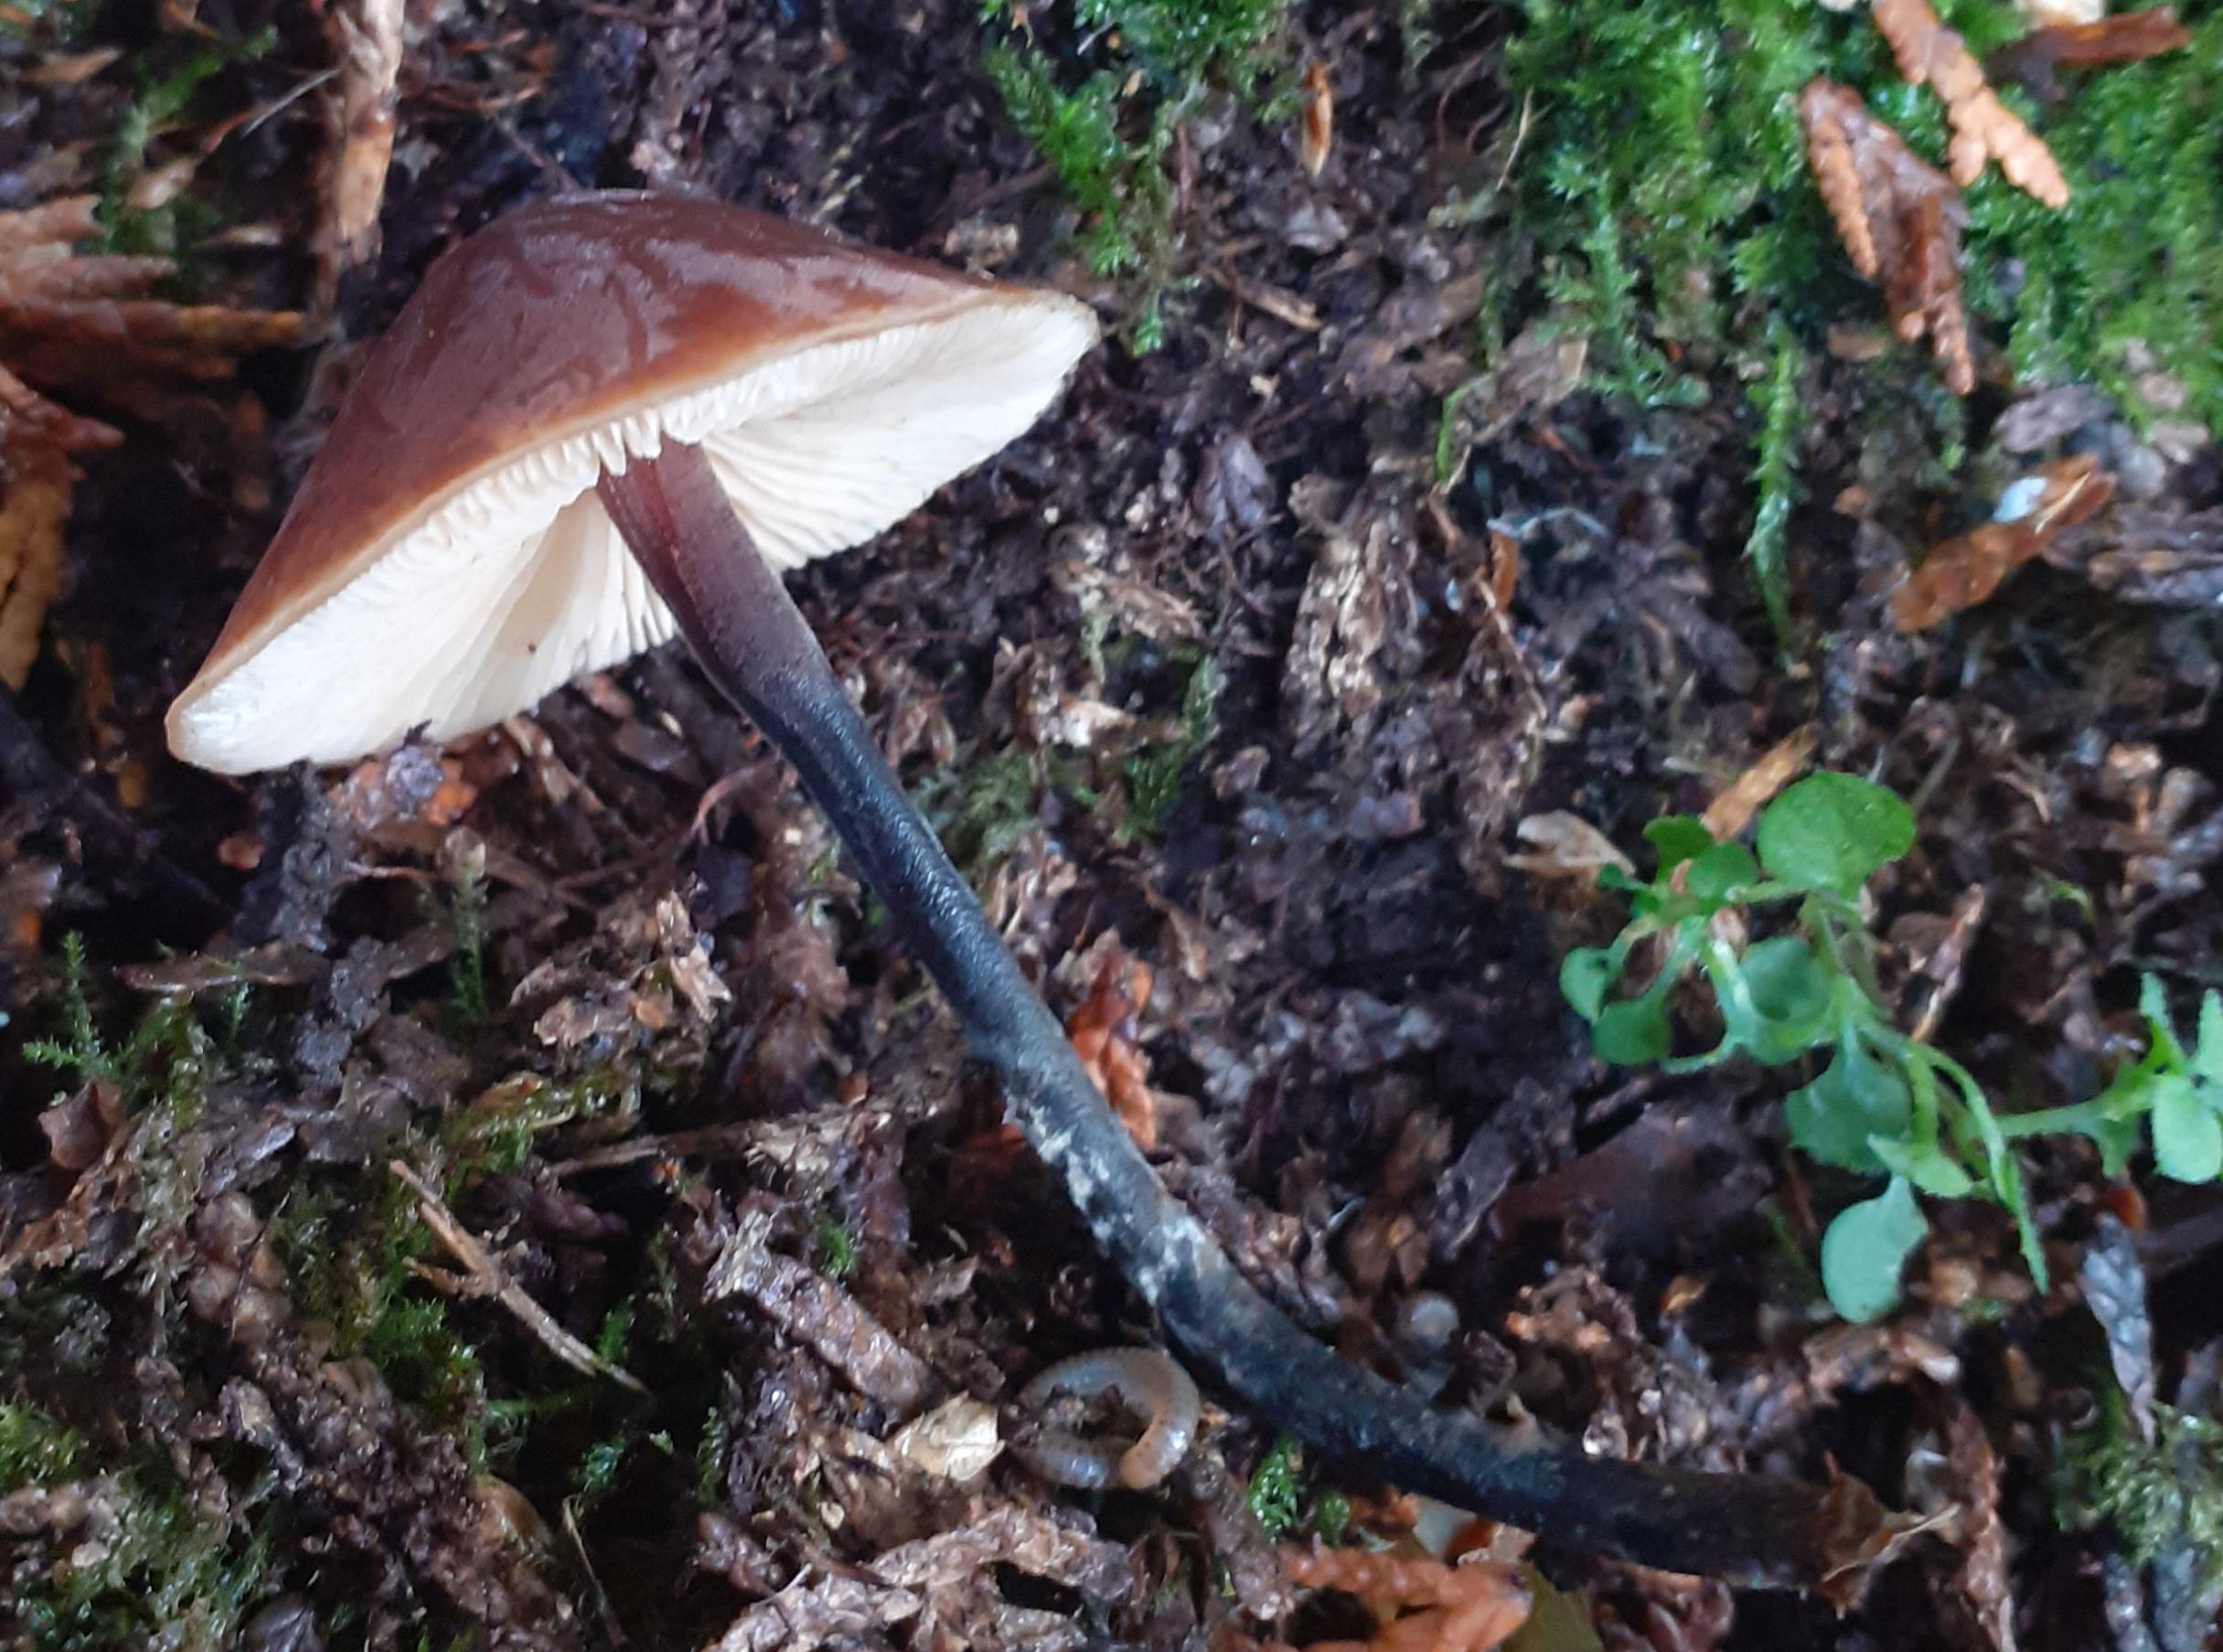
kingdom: Fungi
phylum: Basidiomycota
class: Agaricomycetes
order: Agaricales
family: Macrocystidiaceae
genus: Macrocystidia
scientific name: Macrocystidia cucumis
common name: agurkehat
